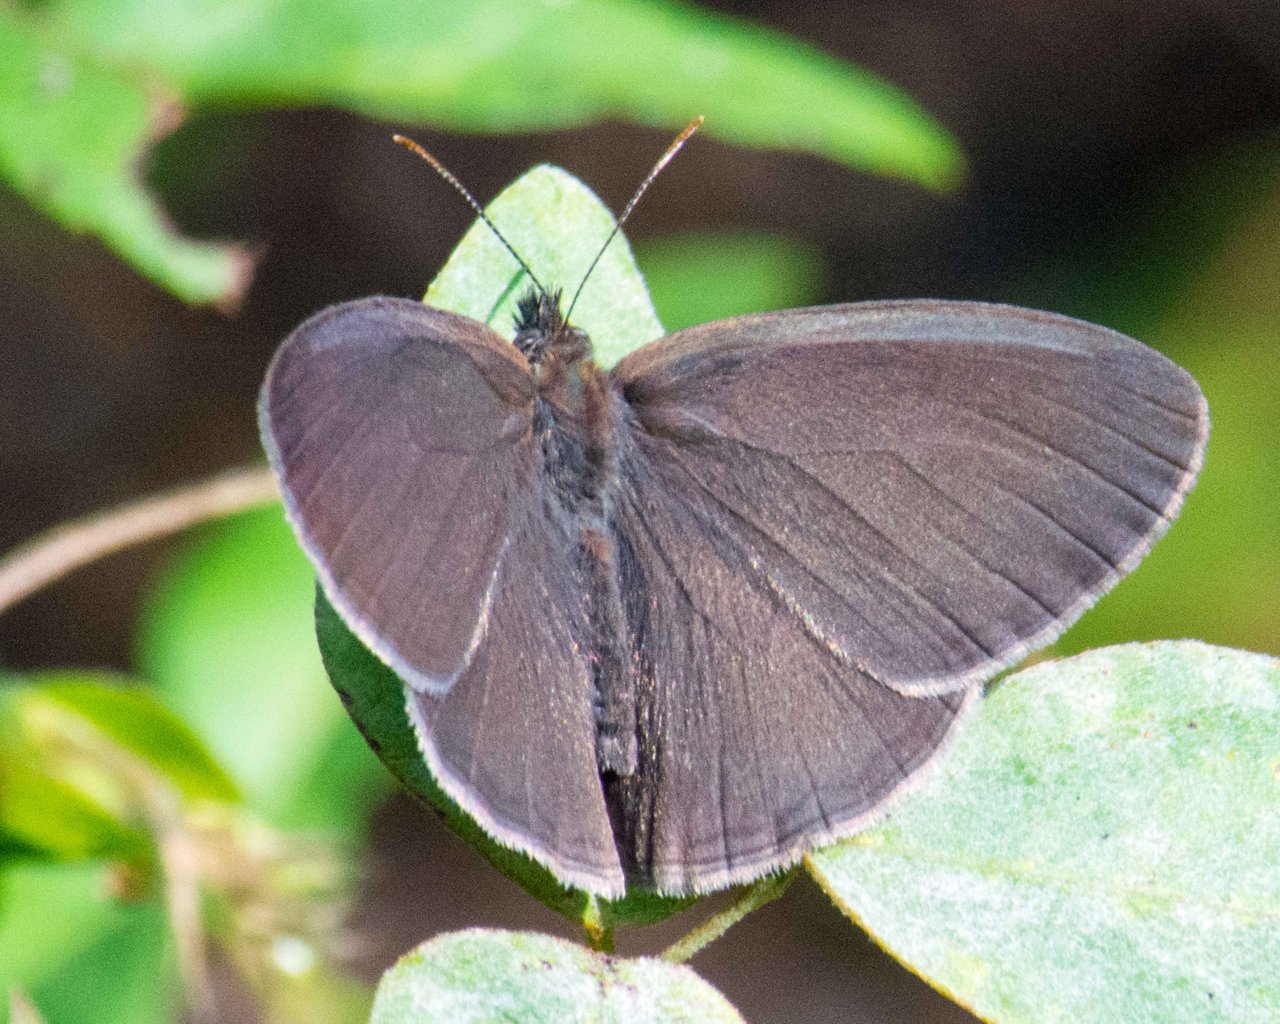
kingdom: Animalia
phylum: Arthropoda
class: Insecta
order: Lepidoptera
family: Nymphalidae
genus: Hermeuptychia
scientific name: Hermeuptychia intricata
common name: Intricate Satyr
